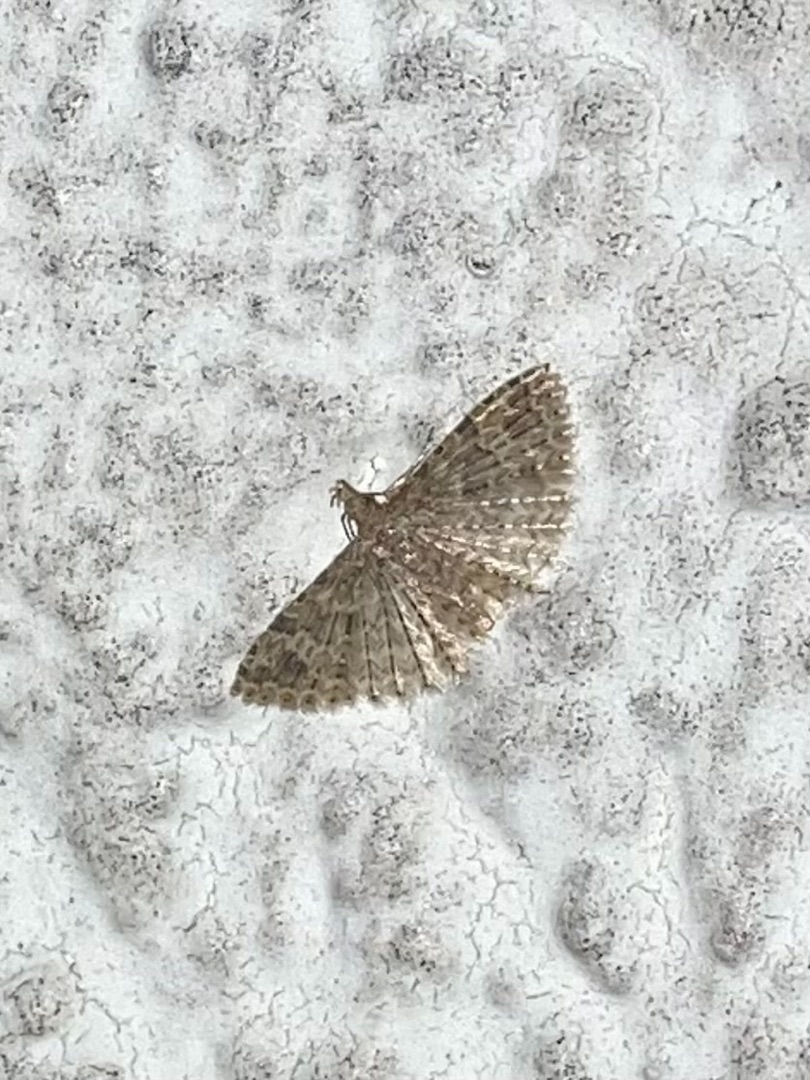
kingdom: Animalia
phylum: Arthropoda
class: Insecta
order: Lepidoptera
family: Alucitidae
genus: Alucita
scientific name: Alucita hexadactyla
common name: Kaprifoliefjermøl
